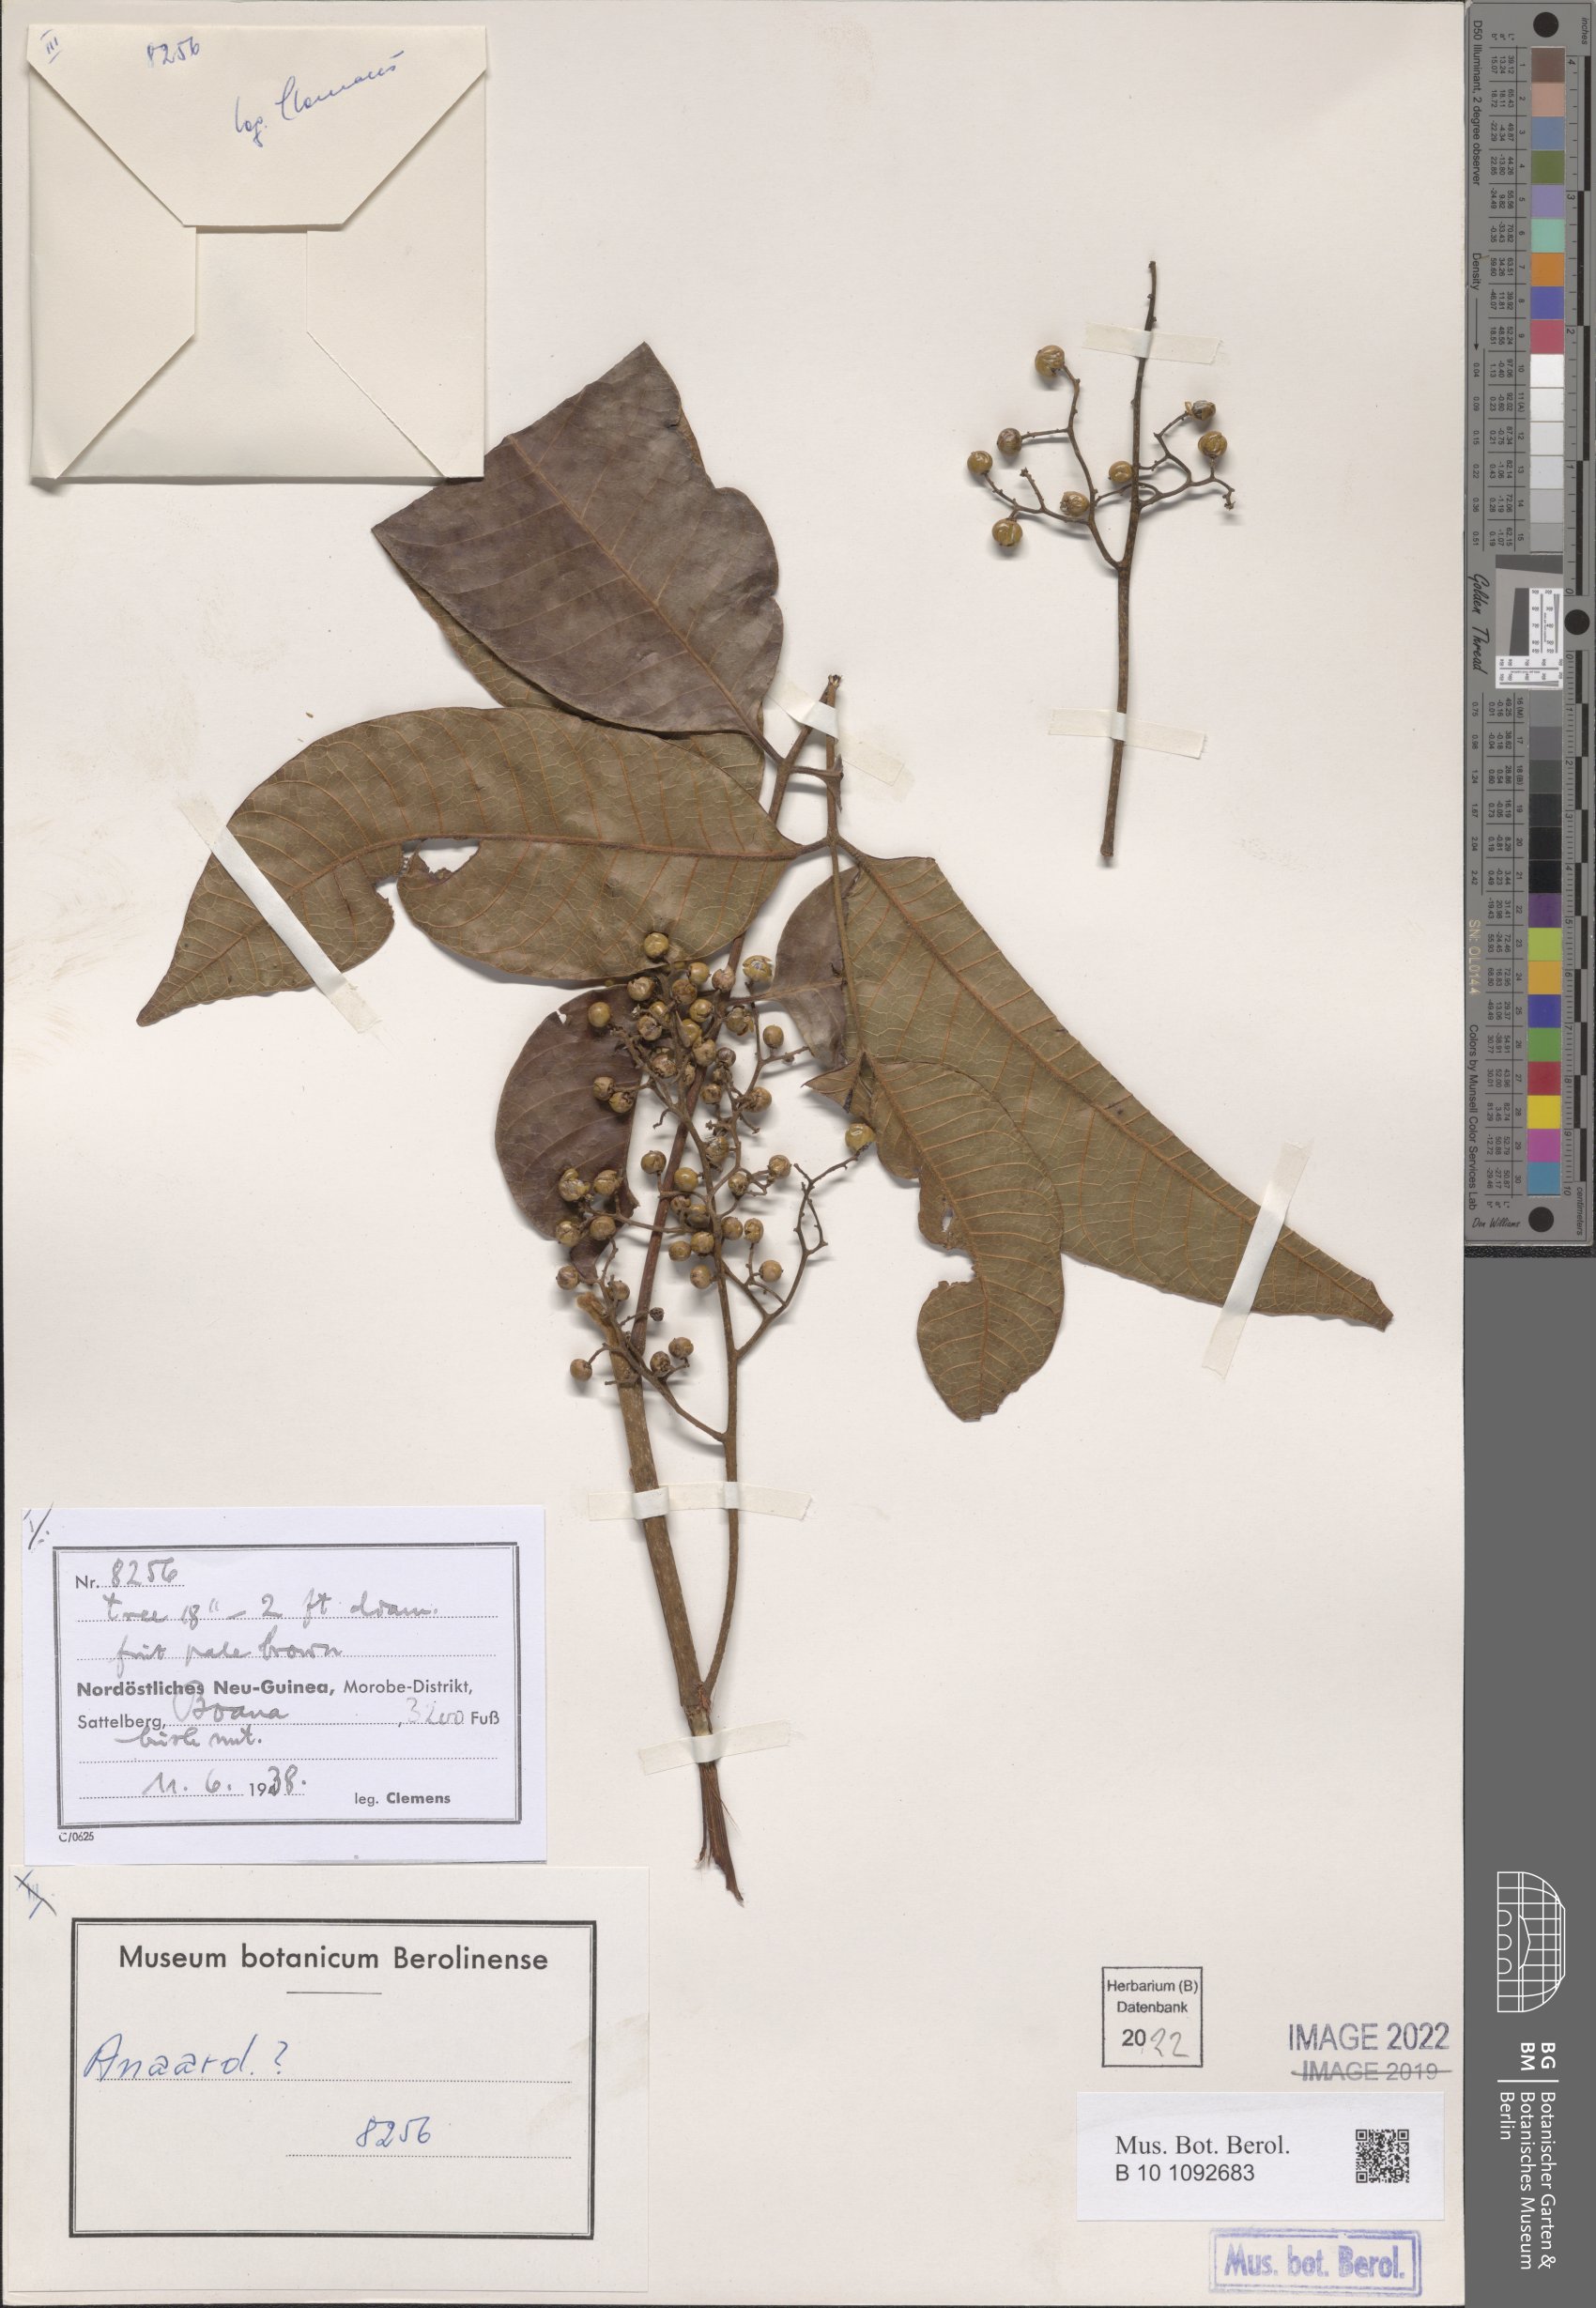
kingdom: Plantae
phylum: Tracheophyta
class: Magnoliopsida
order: Sapindales
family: Anacardiaceae
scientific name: Anacardiaceae
